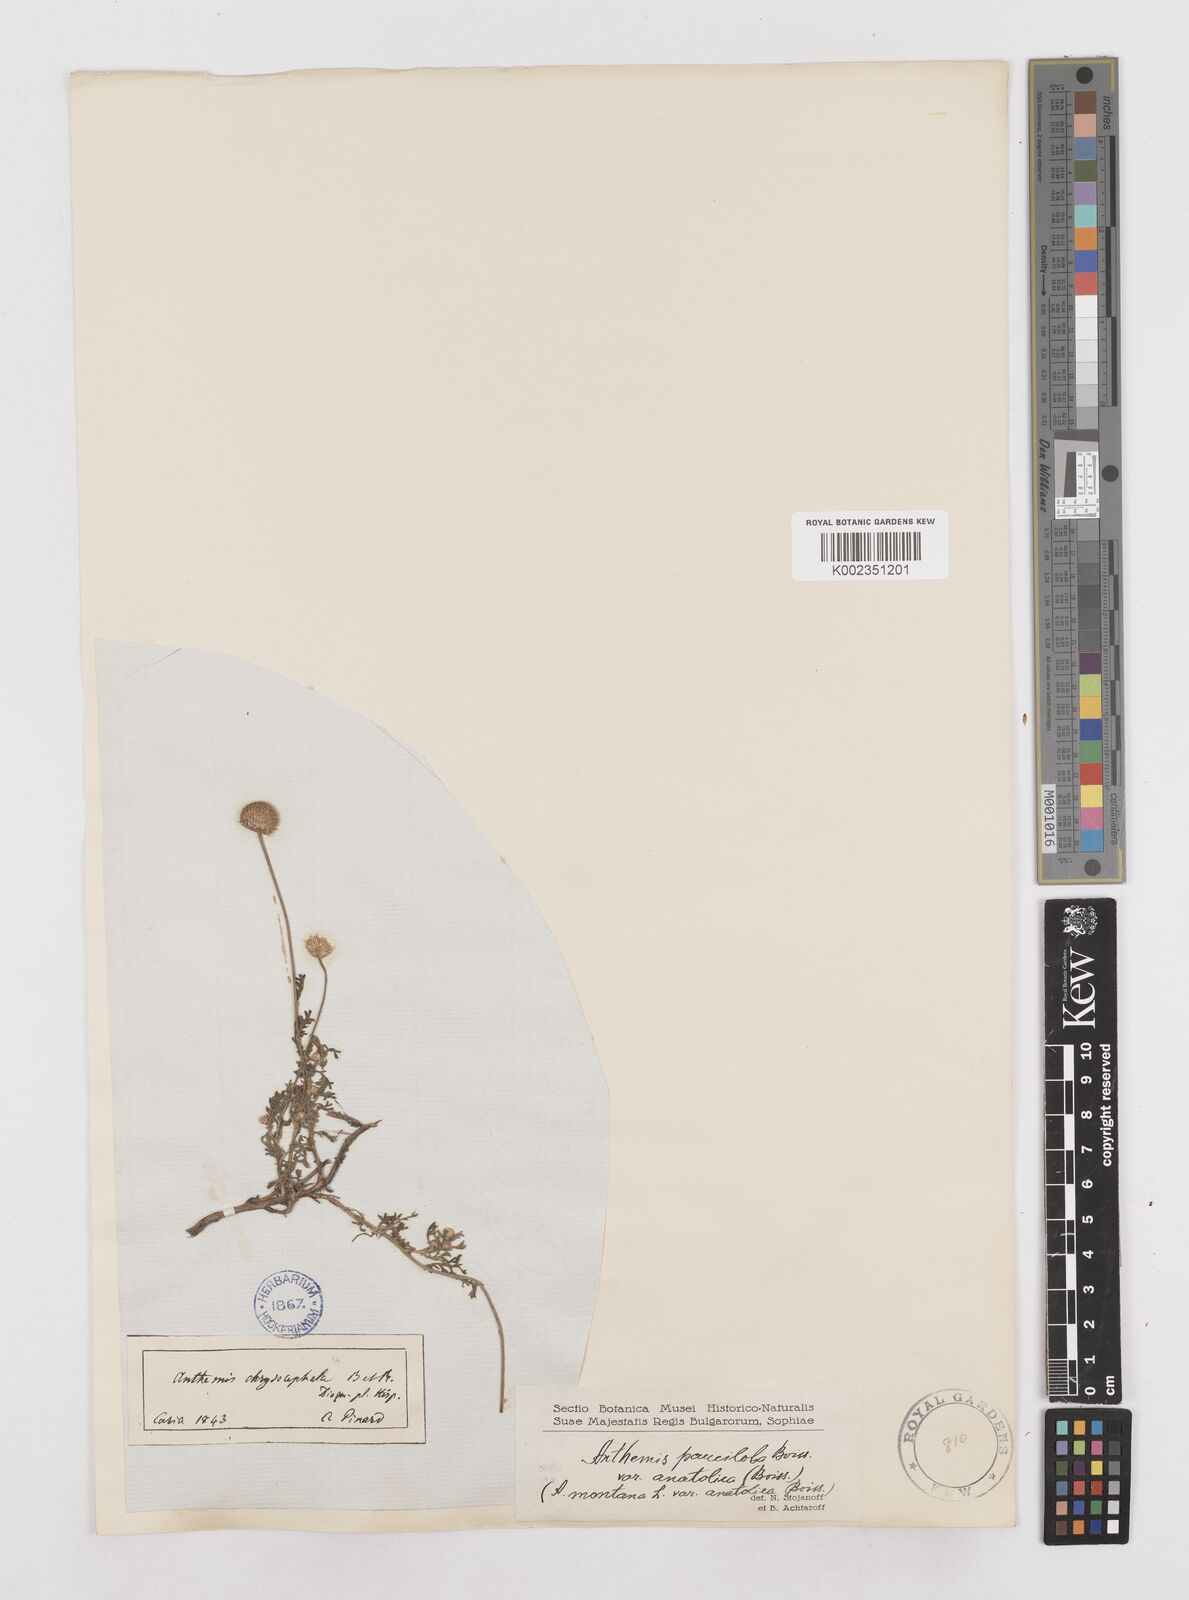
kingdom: Plantae
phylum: Tracheophyta
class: Magnoliopsida
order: Asterales
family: Asteraceae
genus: Anthemis
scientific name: Anthemis cretica
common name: Mountain dog-daisy
